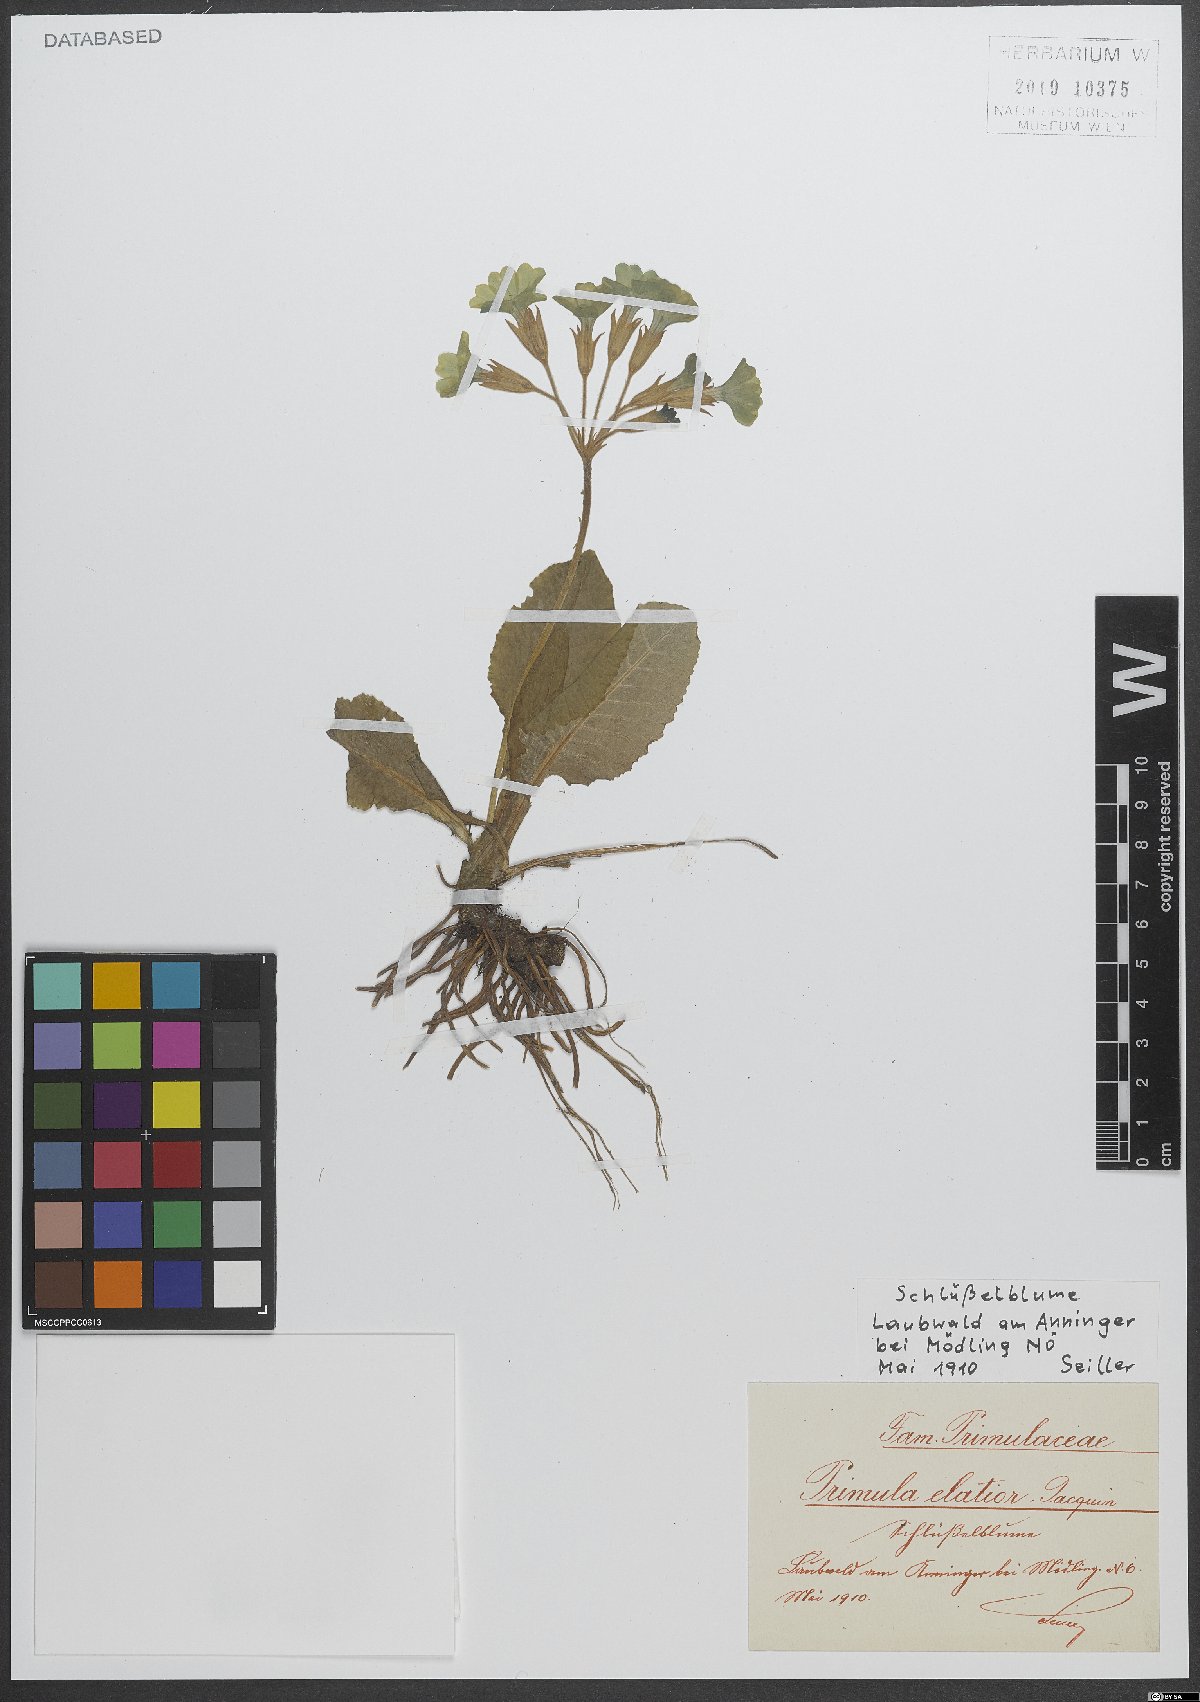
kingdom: Plantae
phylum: Tracheophyta
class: Magnoliopsida
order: Ericales
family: Primulaceae
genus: Primula
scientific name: Primula elatior
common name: Oxlip
